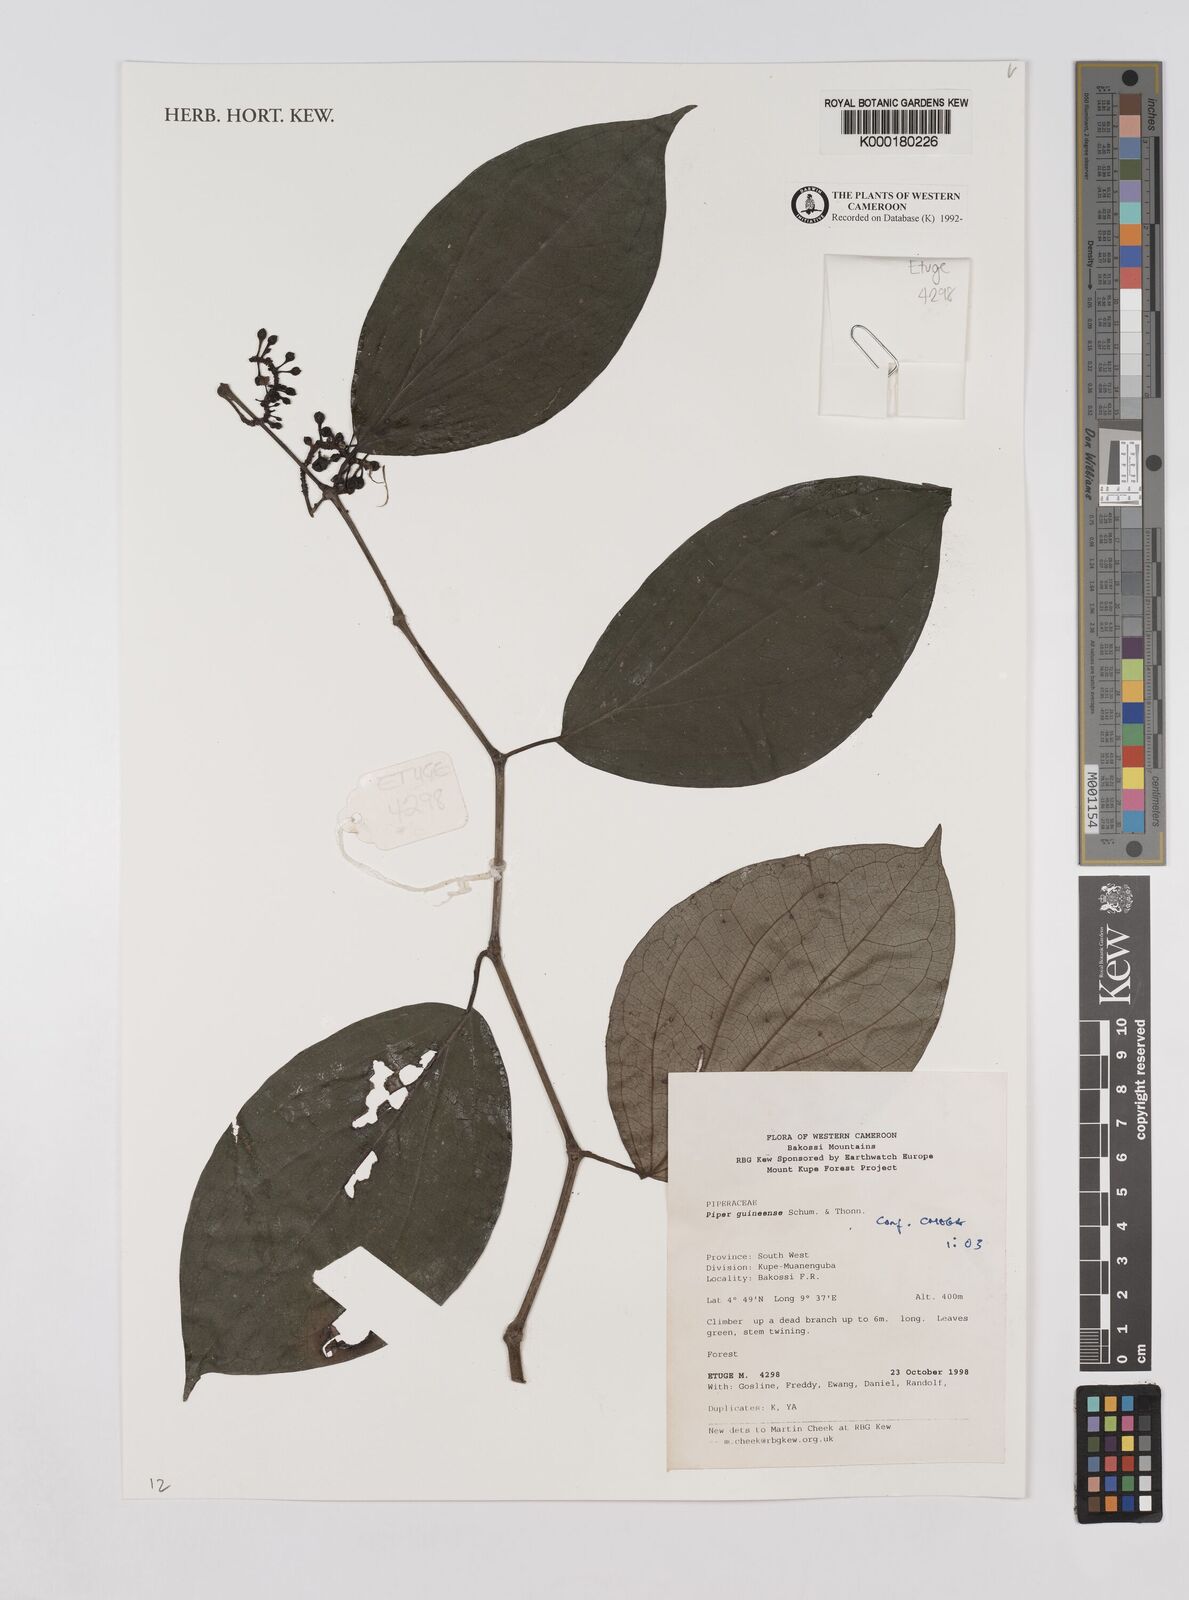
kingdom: Plantae
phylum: Tracheophyta
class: Magnoliopsida
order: Piperales
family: Piperaceae
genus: Piper
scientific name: Piper guineense
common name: Benin pepper
